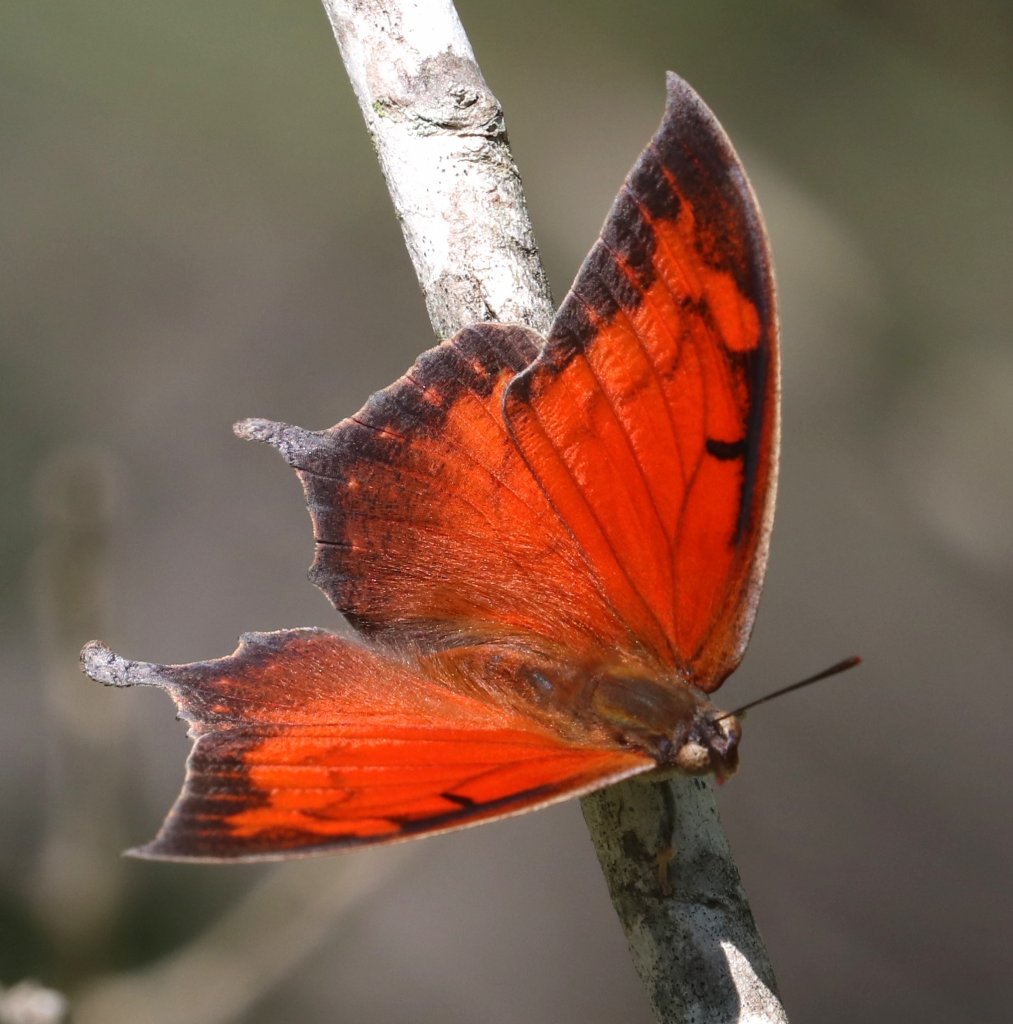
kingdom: Animalia
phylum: Arthropoda
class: Insecta
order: Lepidoptera
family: Nymphalidae
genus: Anaea
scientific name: Anaea aidea
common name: Tropical Leafwing
